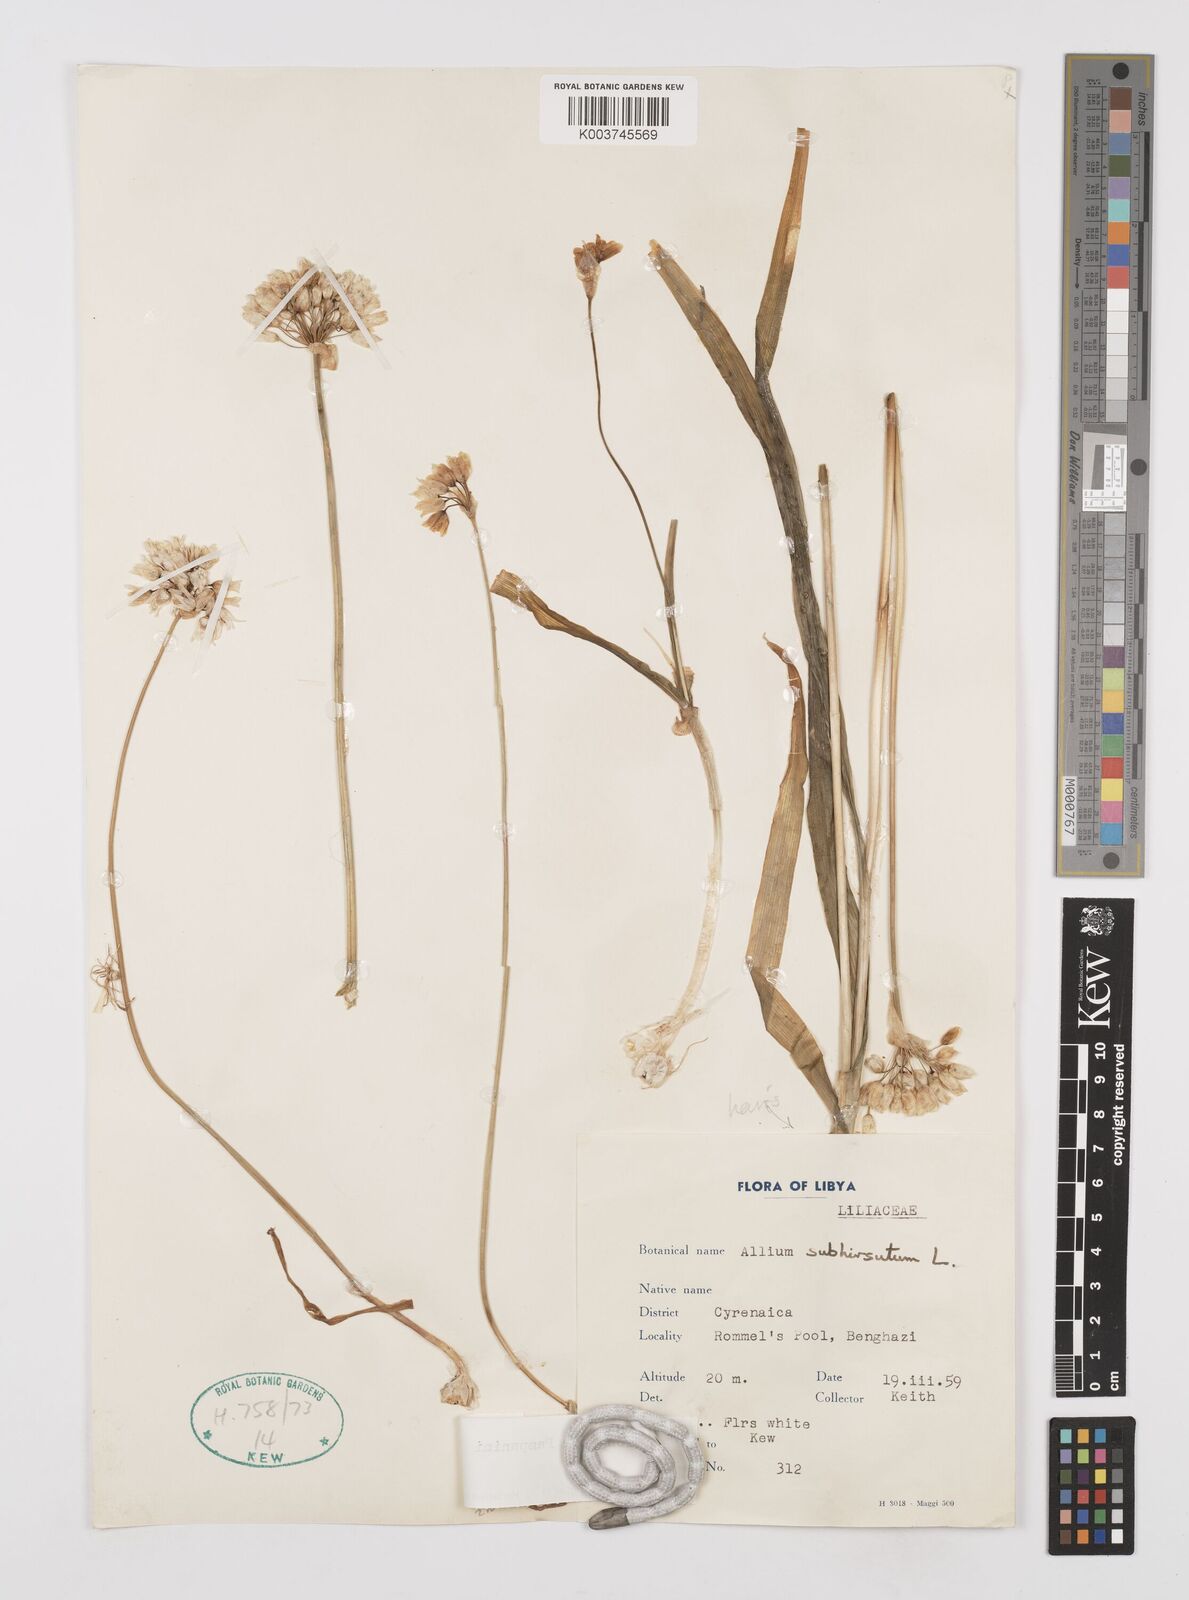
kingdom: Plantae
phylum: Tracheophyta
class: Liliopsida
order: Asparagales
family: Amaryllidaceae
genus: Allium
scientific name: Allium longanum
